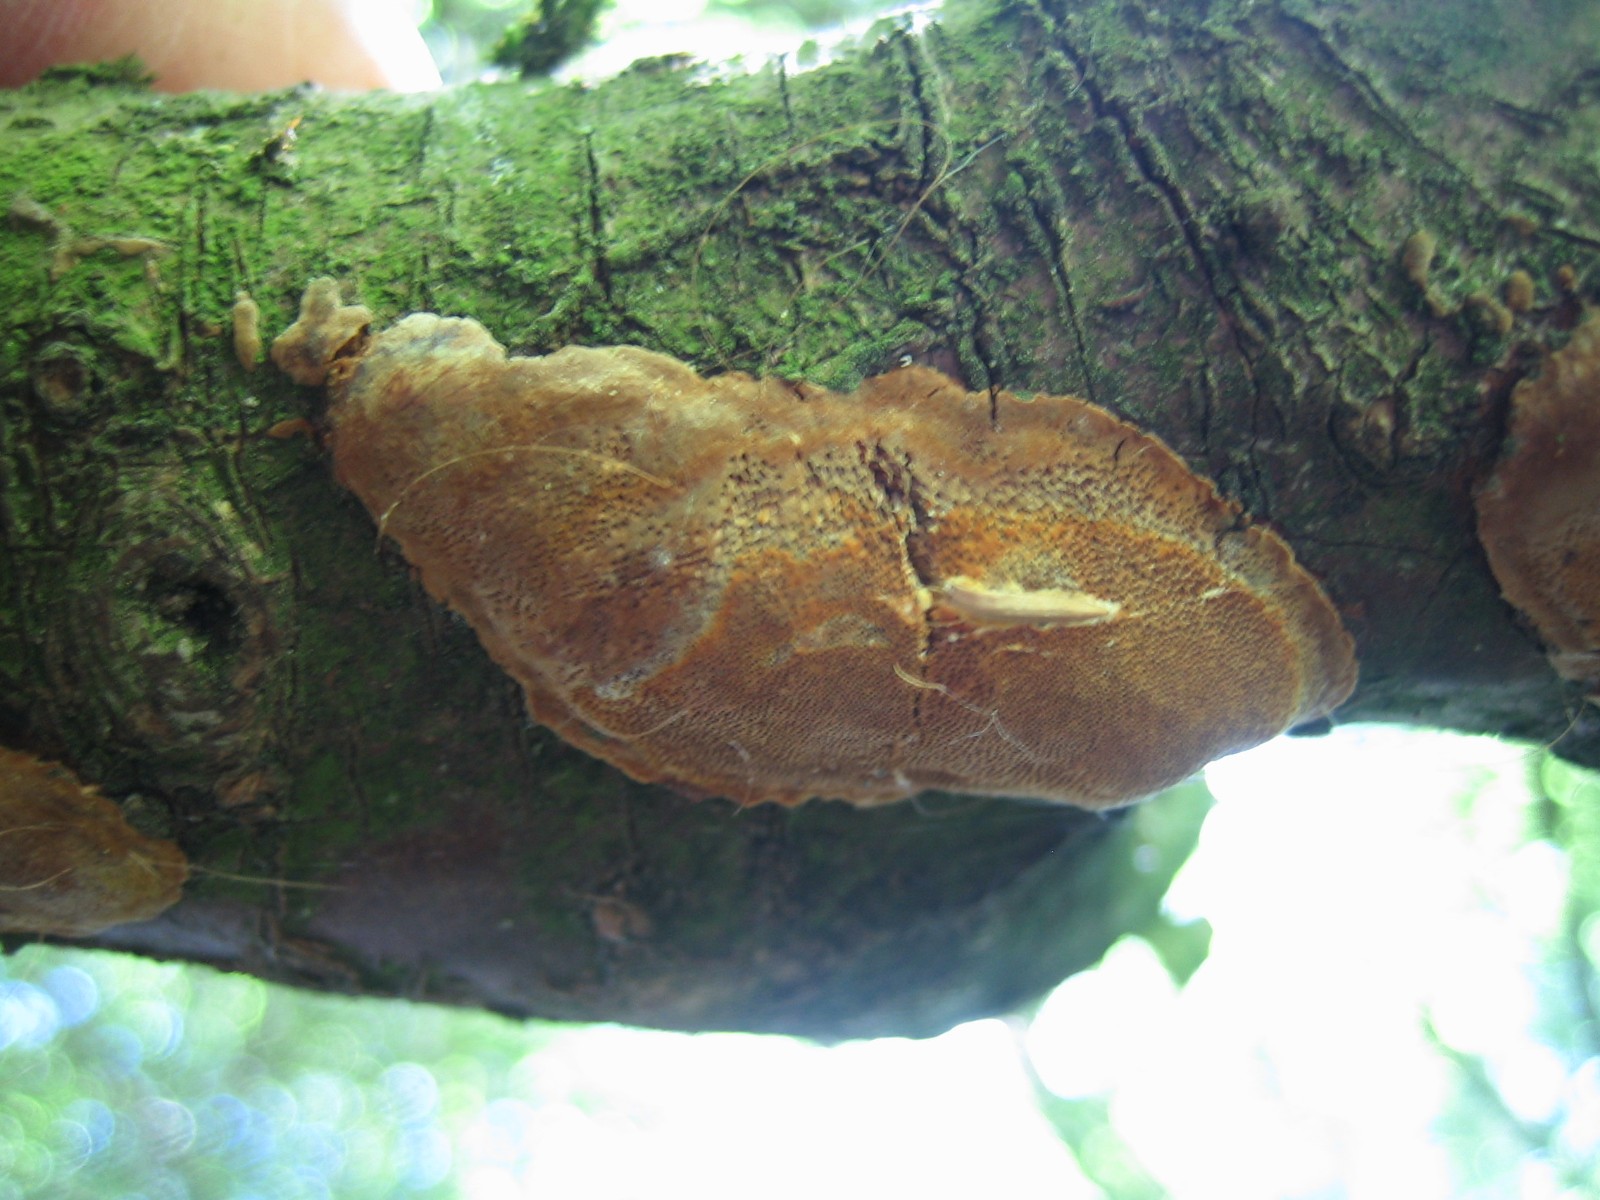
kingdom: Fungi
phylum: Basidiomycota
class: Agaricomycetes
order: Hymenochaetales
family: Hymenochaetaceae
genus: Phellinus
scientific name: Phellinus pomaceus
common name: blomme-ildporesvamp
